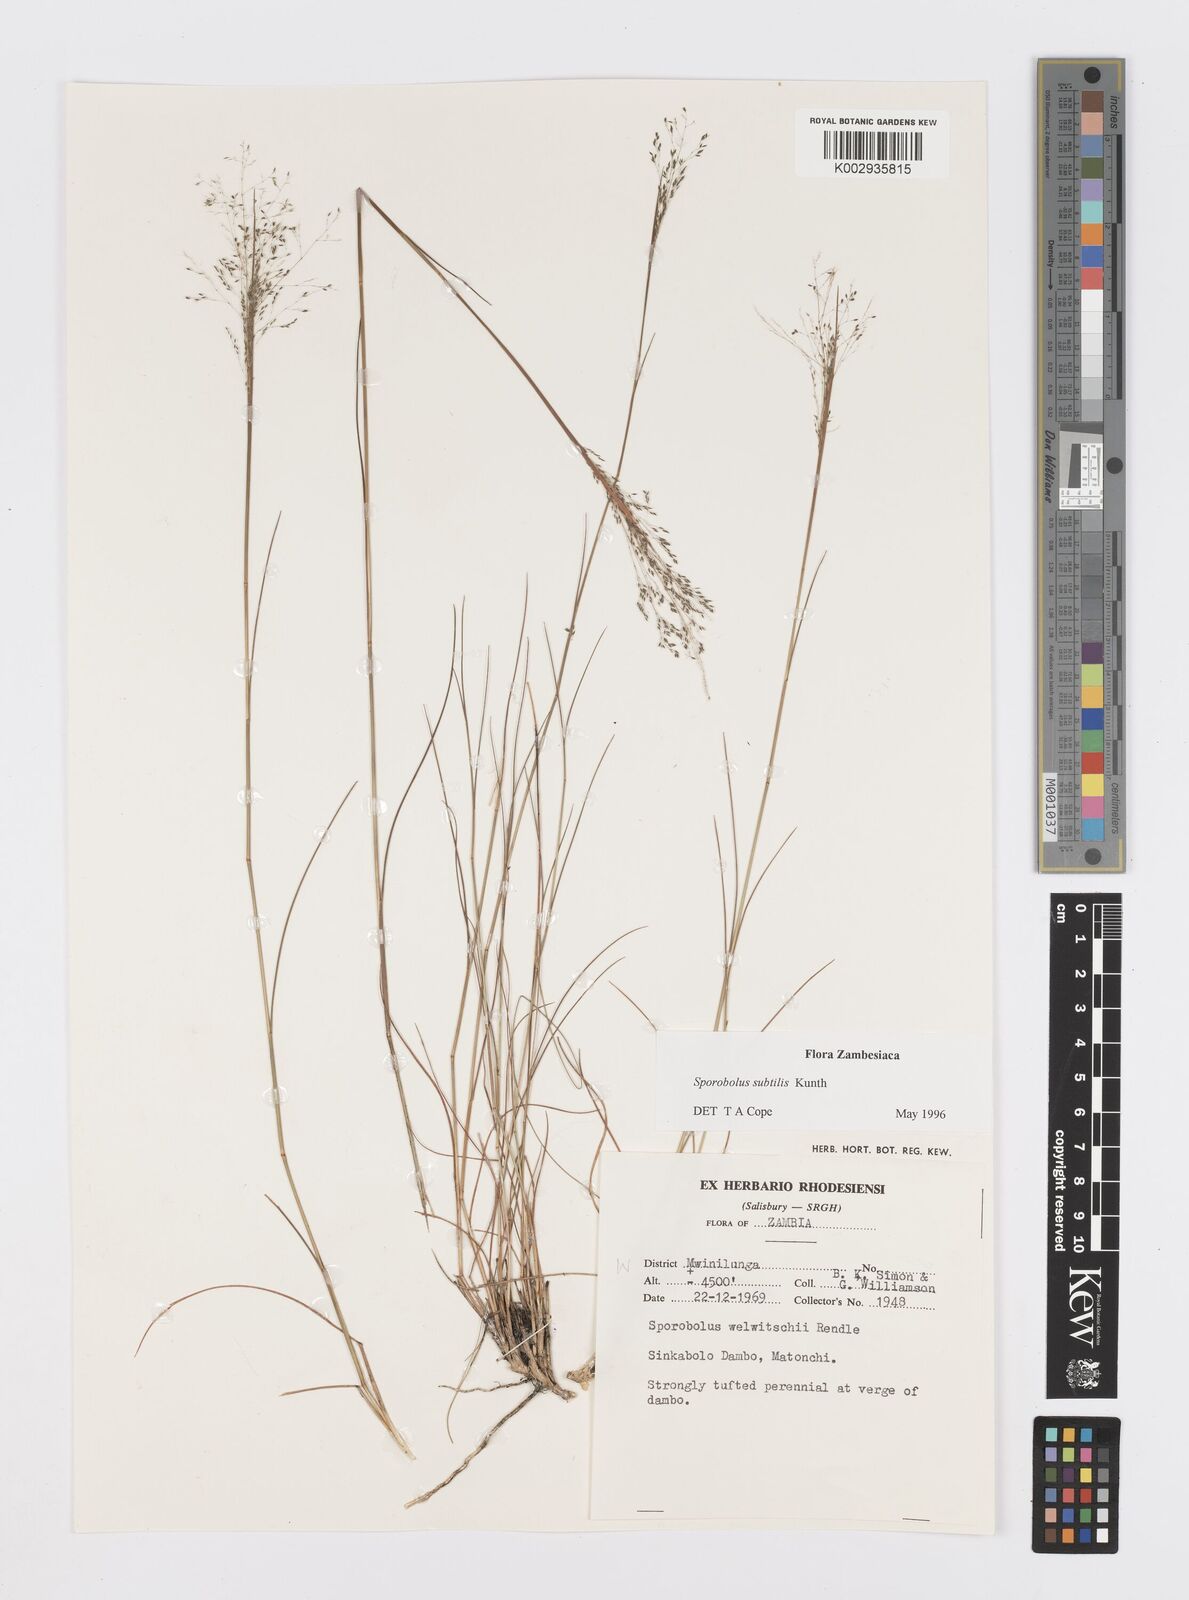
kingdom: Plantae
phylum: Tracheophyta
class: Liliopsida
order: Poales
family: Poaceae
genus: Sporobolus
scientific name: Sporobolus subtilis
